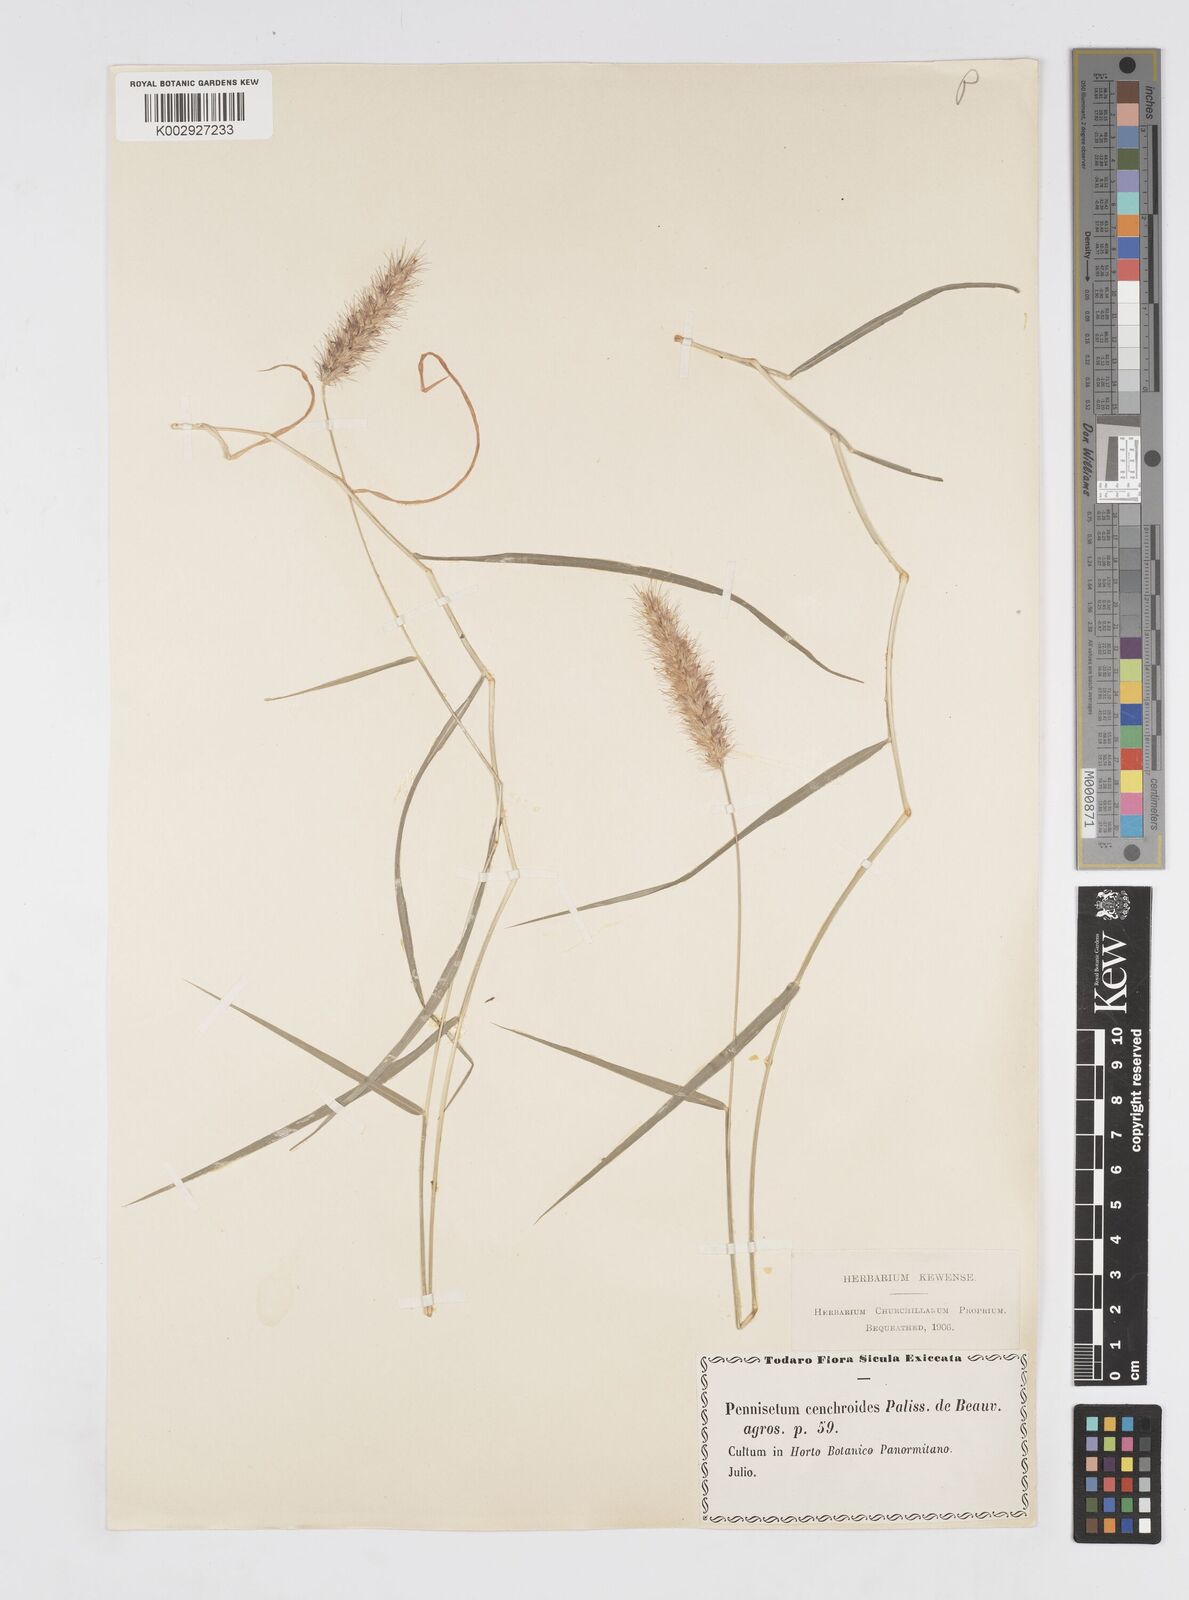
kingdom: Plantae
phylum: Tracheophyta
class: Liliopsida
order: Poales
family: Poaceae
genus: Cenchrus
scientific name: Cenchrus ciliaris
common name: Buffelgrass
